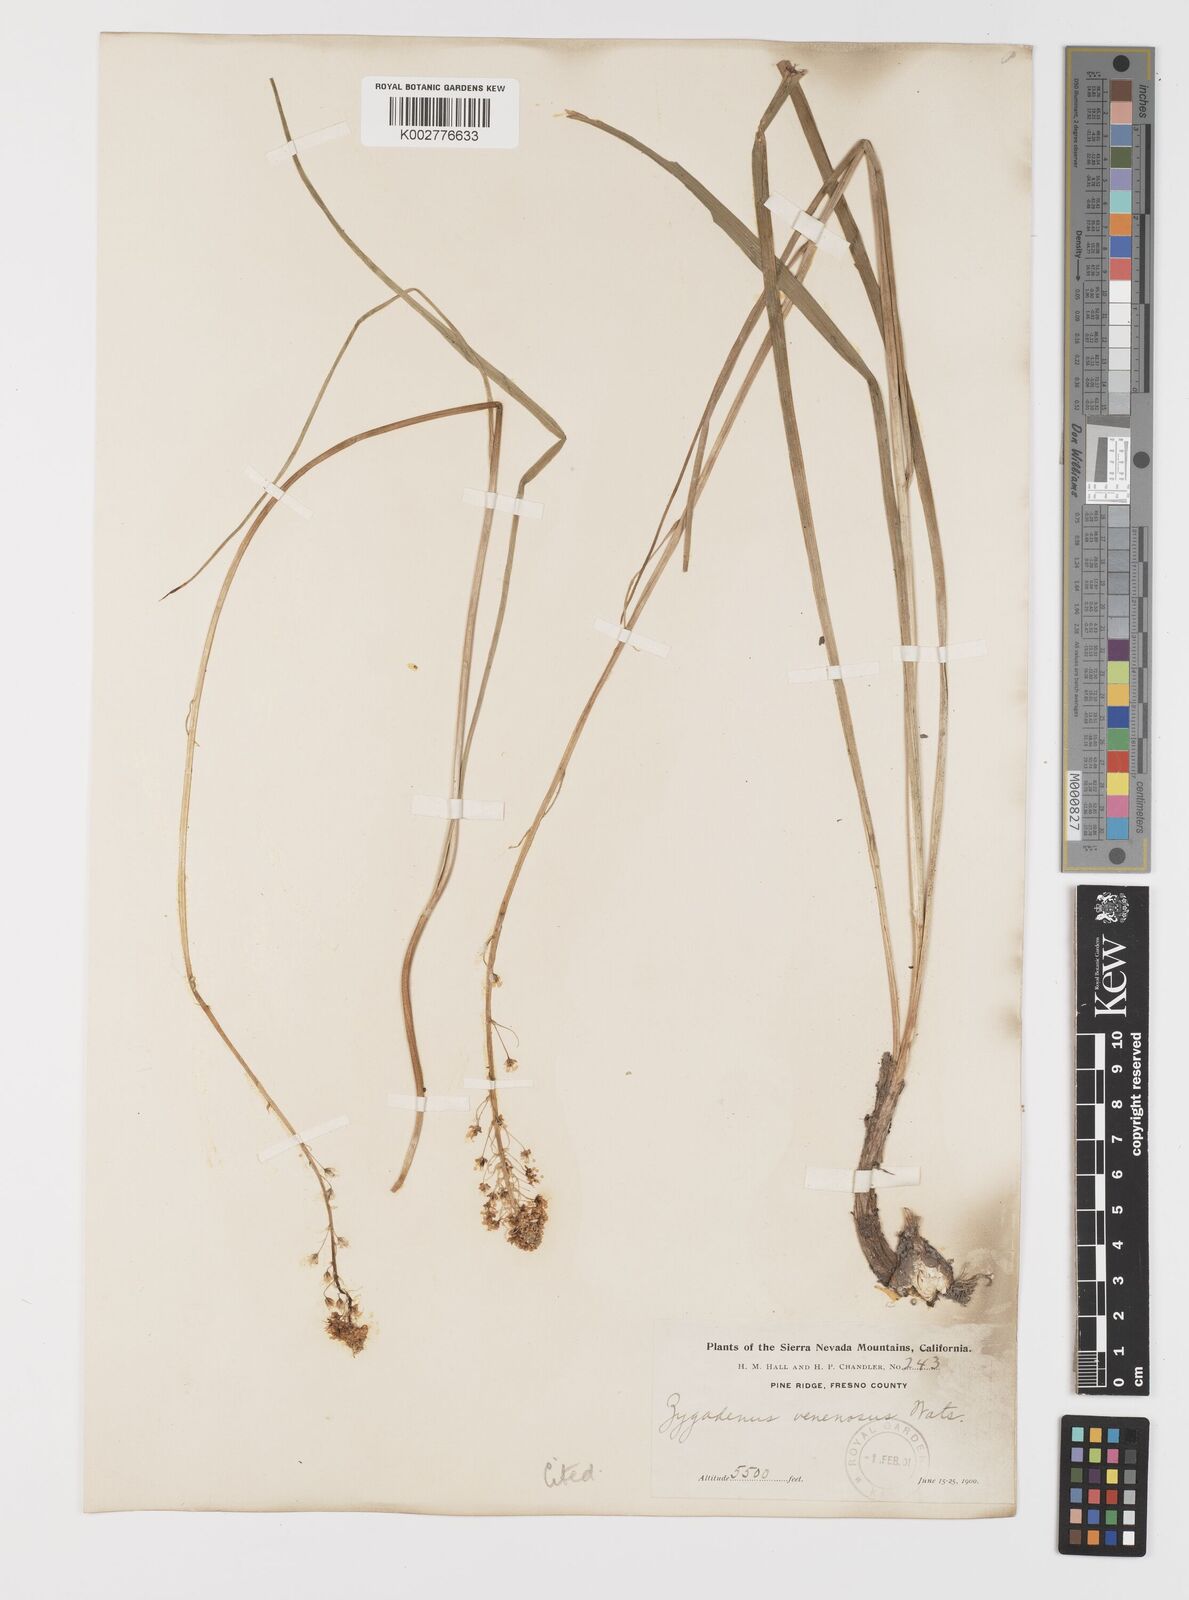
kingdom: Plantae
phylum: Tracheophyta
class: Liliopsida
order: Liliales
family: Melanthiaceae
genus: Toxicoscordion
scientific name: Toxicoscordion venenosum
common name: Meadow death camas
